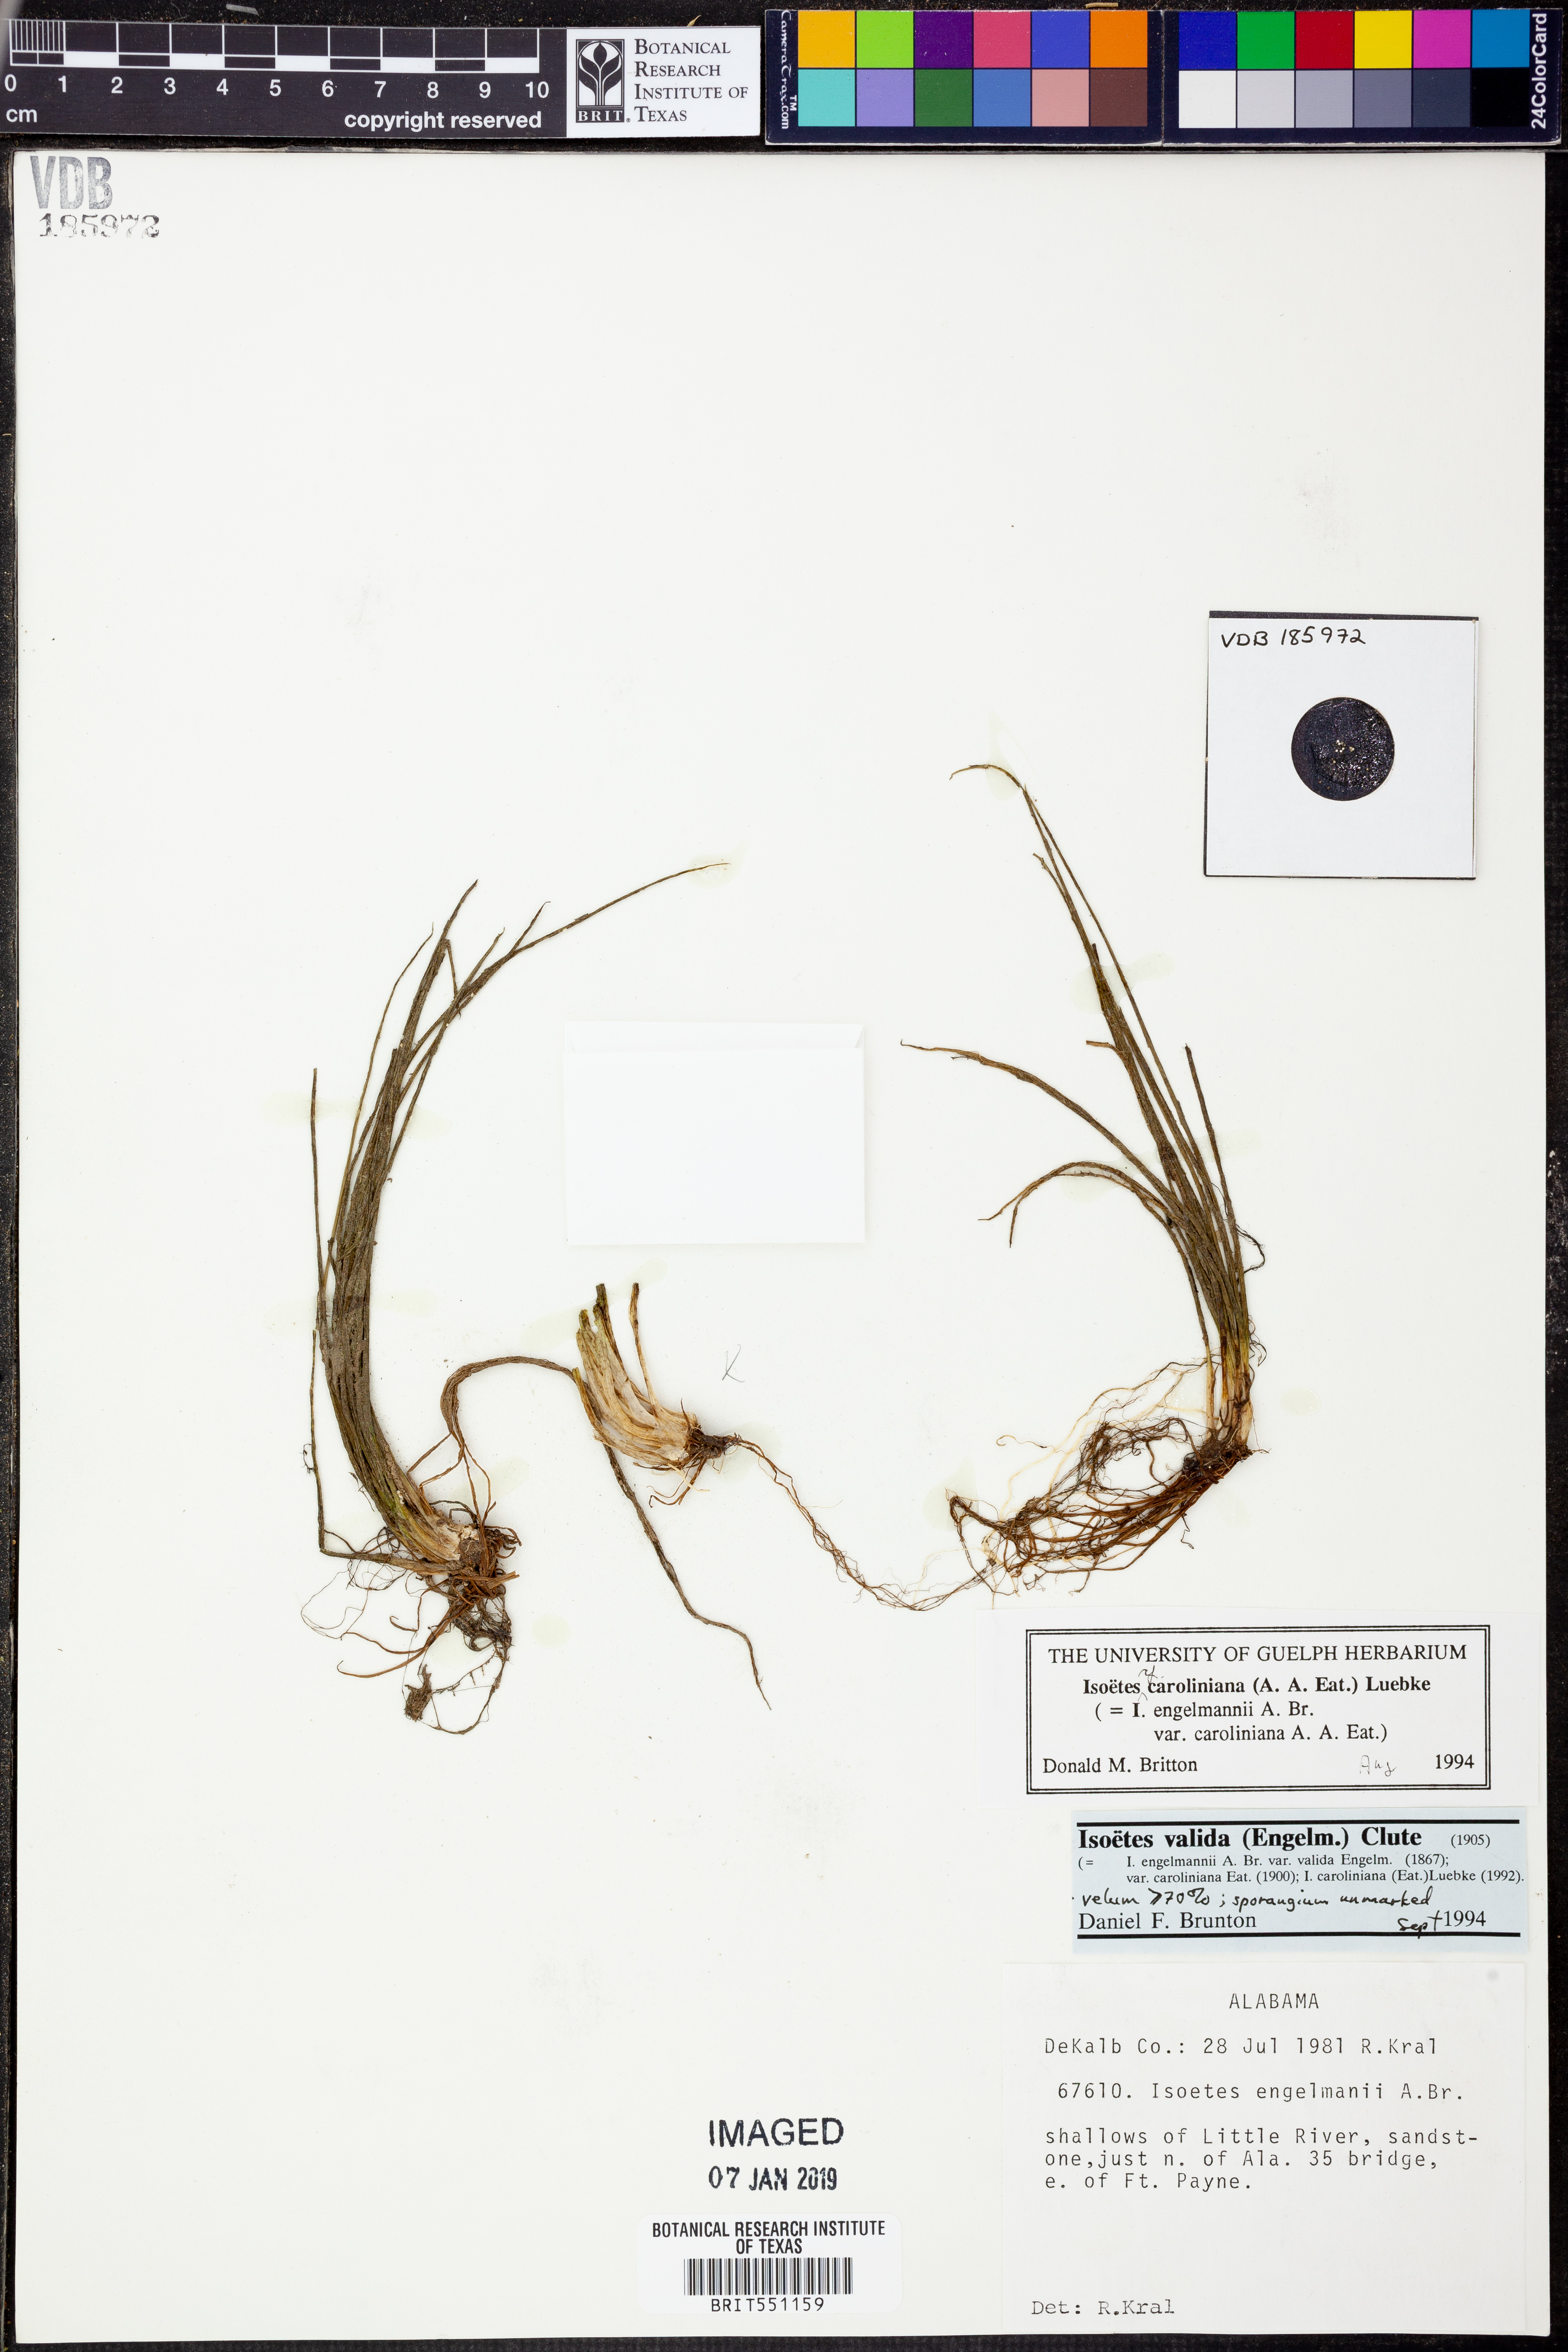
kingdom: Plantae
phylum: Tracheophyta
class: Lycopodiopsida
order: Isoetales
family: Isoetaceae
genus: Isoetes
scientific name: Isoetes valida
